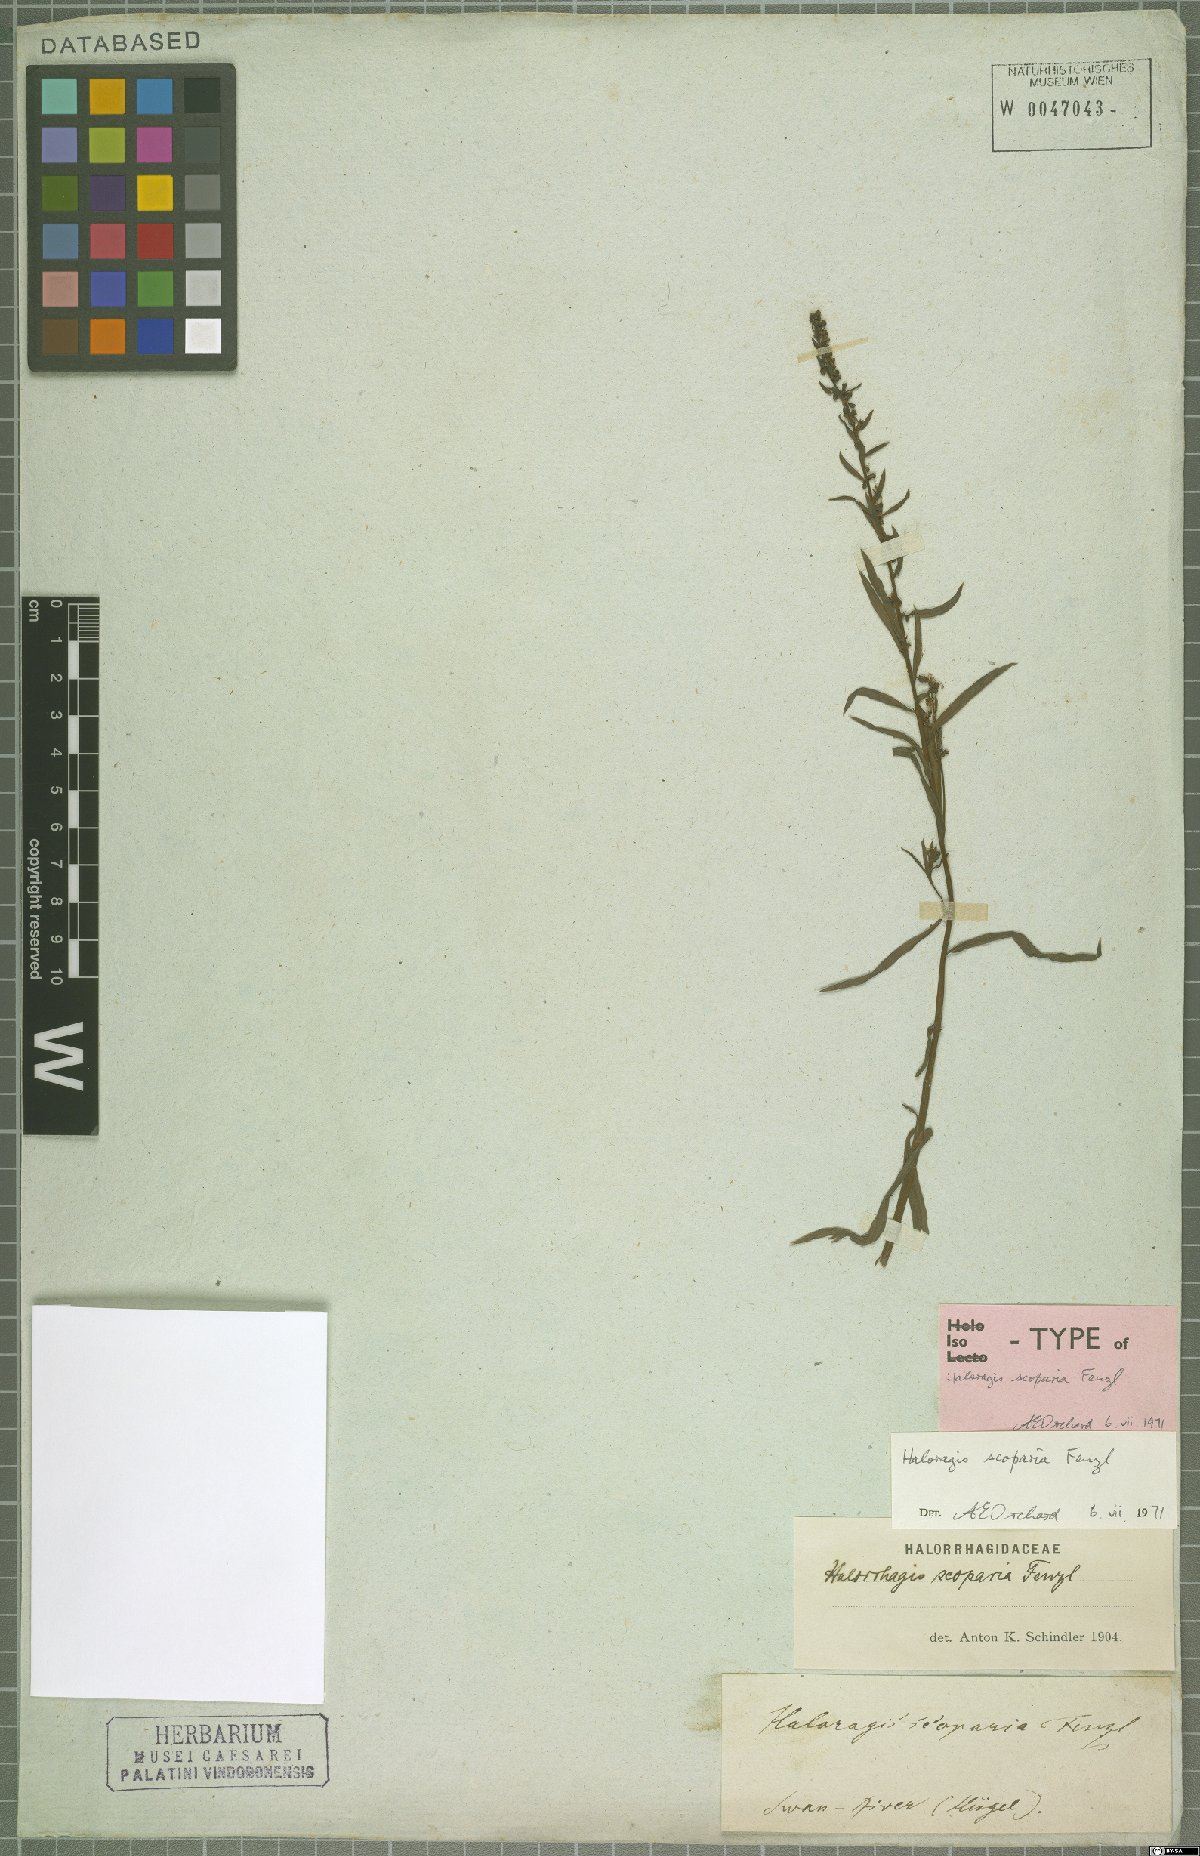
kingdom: Plantae
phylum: Tracheophyta
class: Magnoliopsida
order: Saxifragales
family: Haloragaceae
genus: Haloragis
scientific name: Haloragis scoparia
